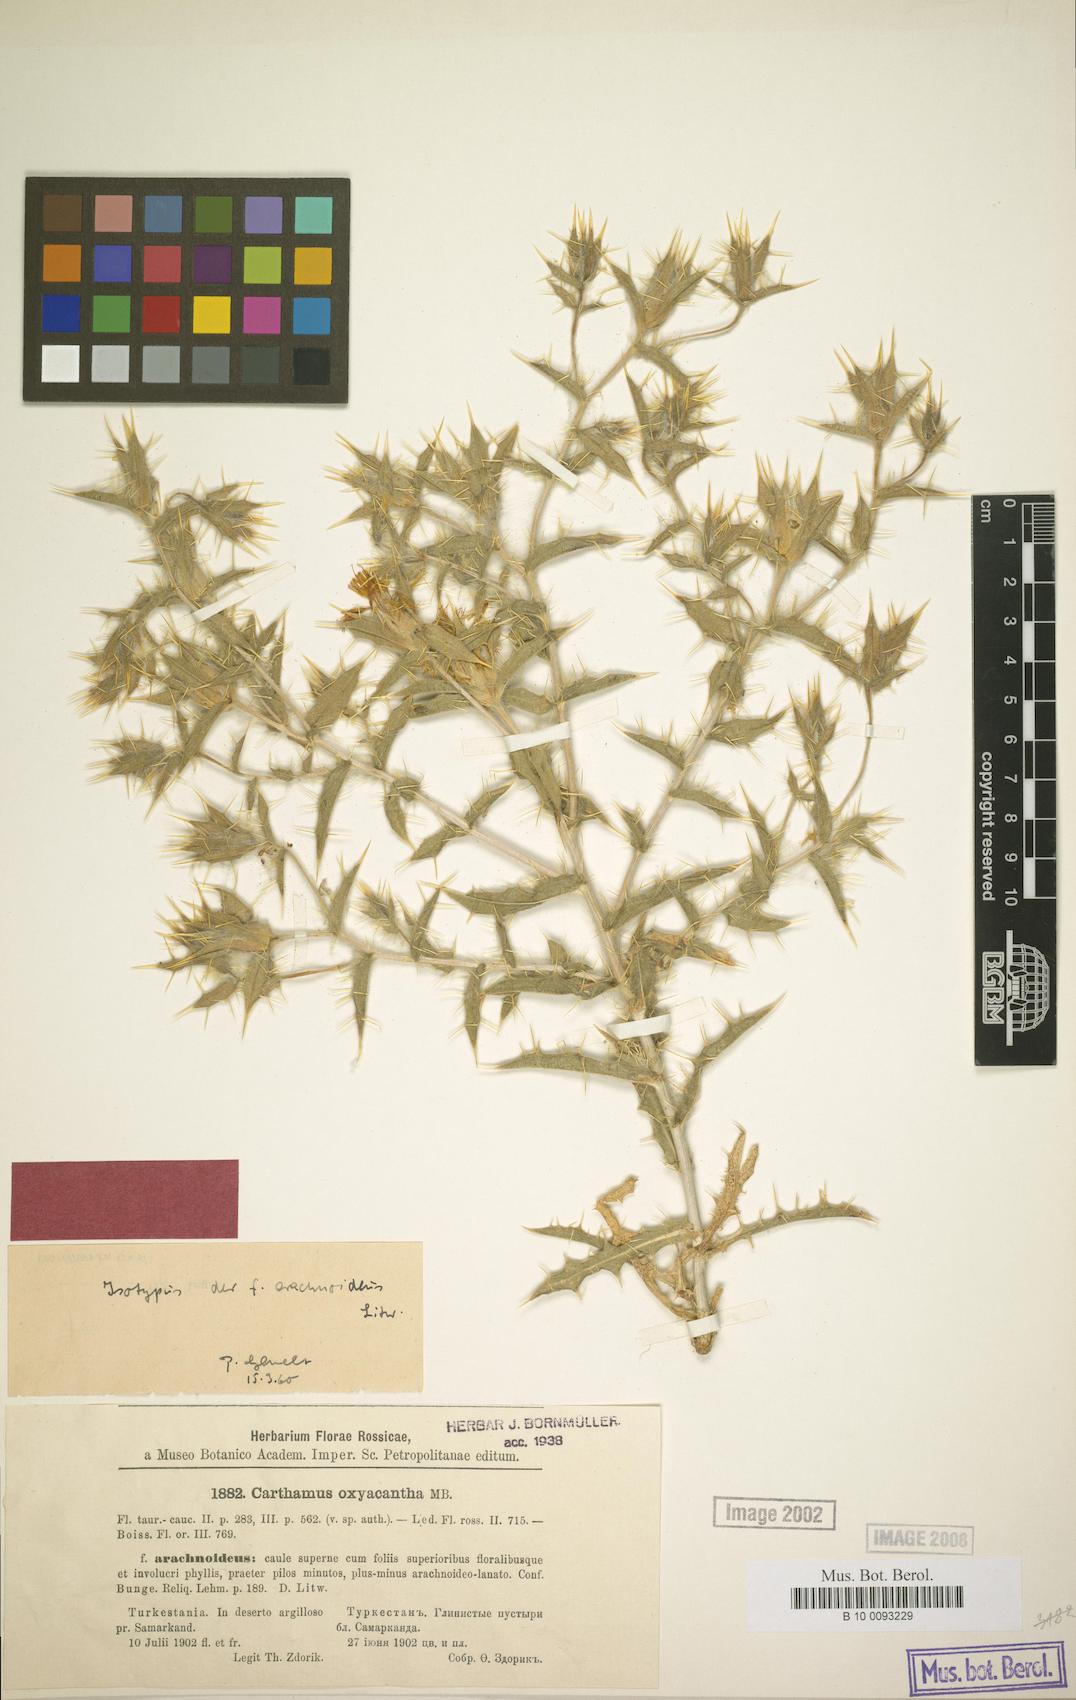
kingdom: Plantae
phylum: Tracheophyta
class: Magnoliopsida
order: Asterales
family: Asteraceae
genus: Carthamus
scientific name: Carthamus oxyacanthus
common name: Wild safflower
